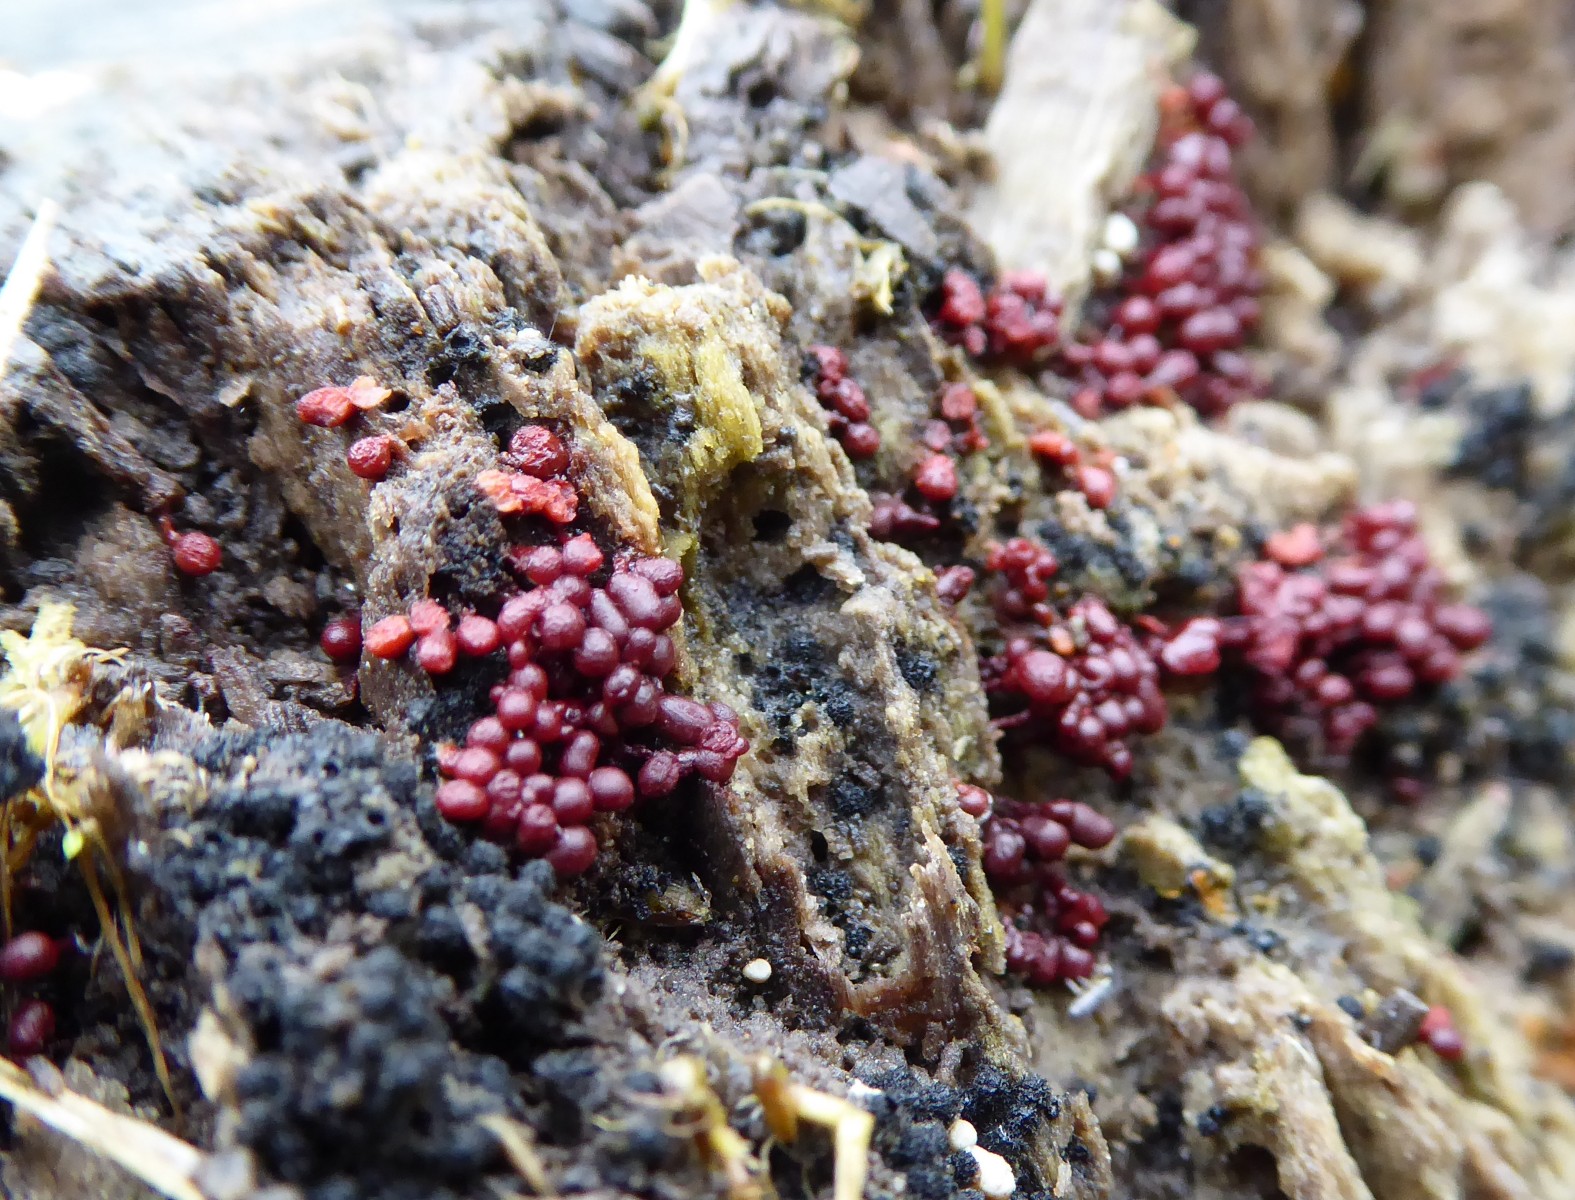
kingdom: Protozoa
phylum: Amoebozoa
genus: Arcyria
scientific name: Arcyria
